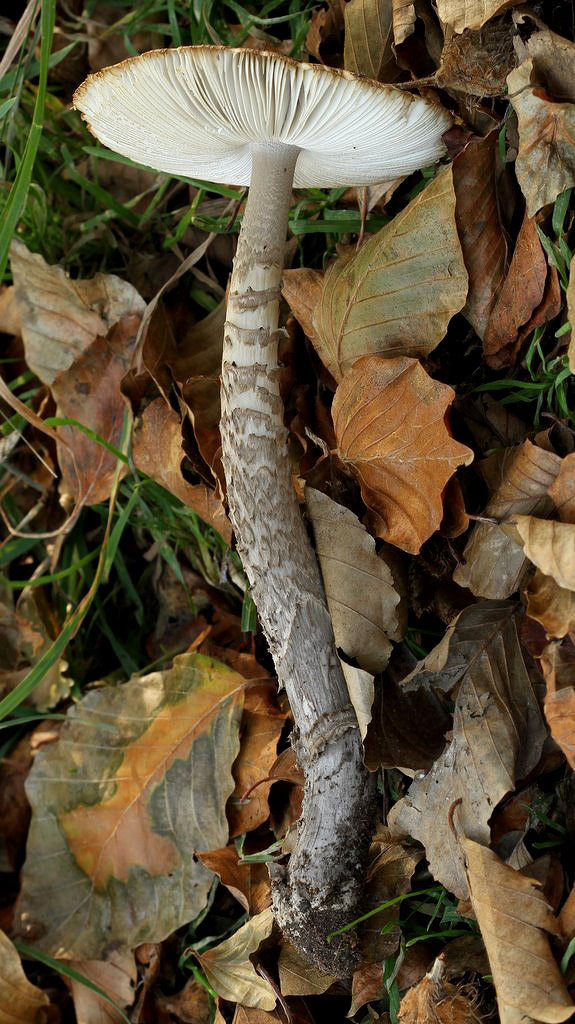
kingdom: Fungi
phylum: Basidiomycota
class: Agaricomycetes
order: Agaricales
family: Amanitaceae
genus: Amanita
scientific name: Amanita ceciliae
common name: stor kam-fluesvamp
